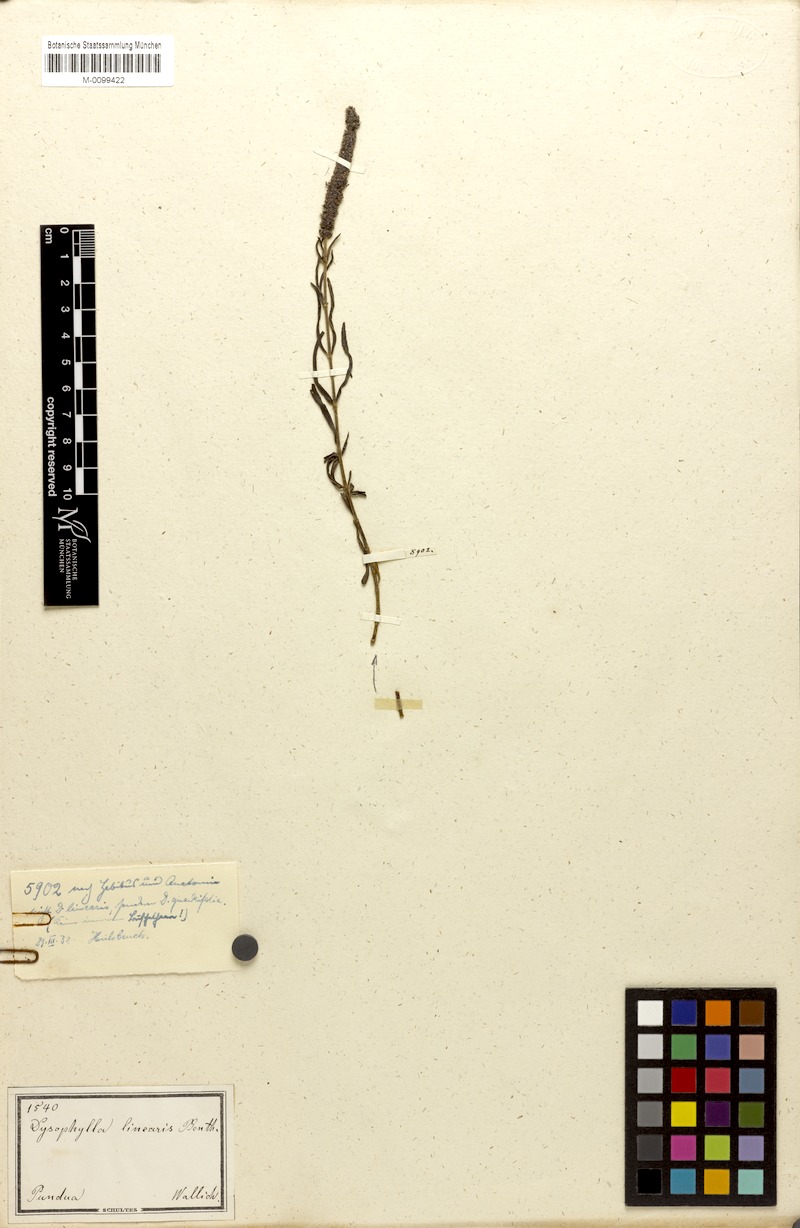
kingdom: Plantae
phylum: Tracheophyta
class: Magnoliopsida
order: Lamiales
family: Lamiaceae
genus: Pogostemon
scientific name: Pogostemon quadrifolius
